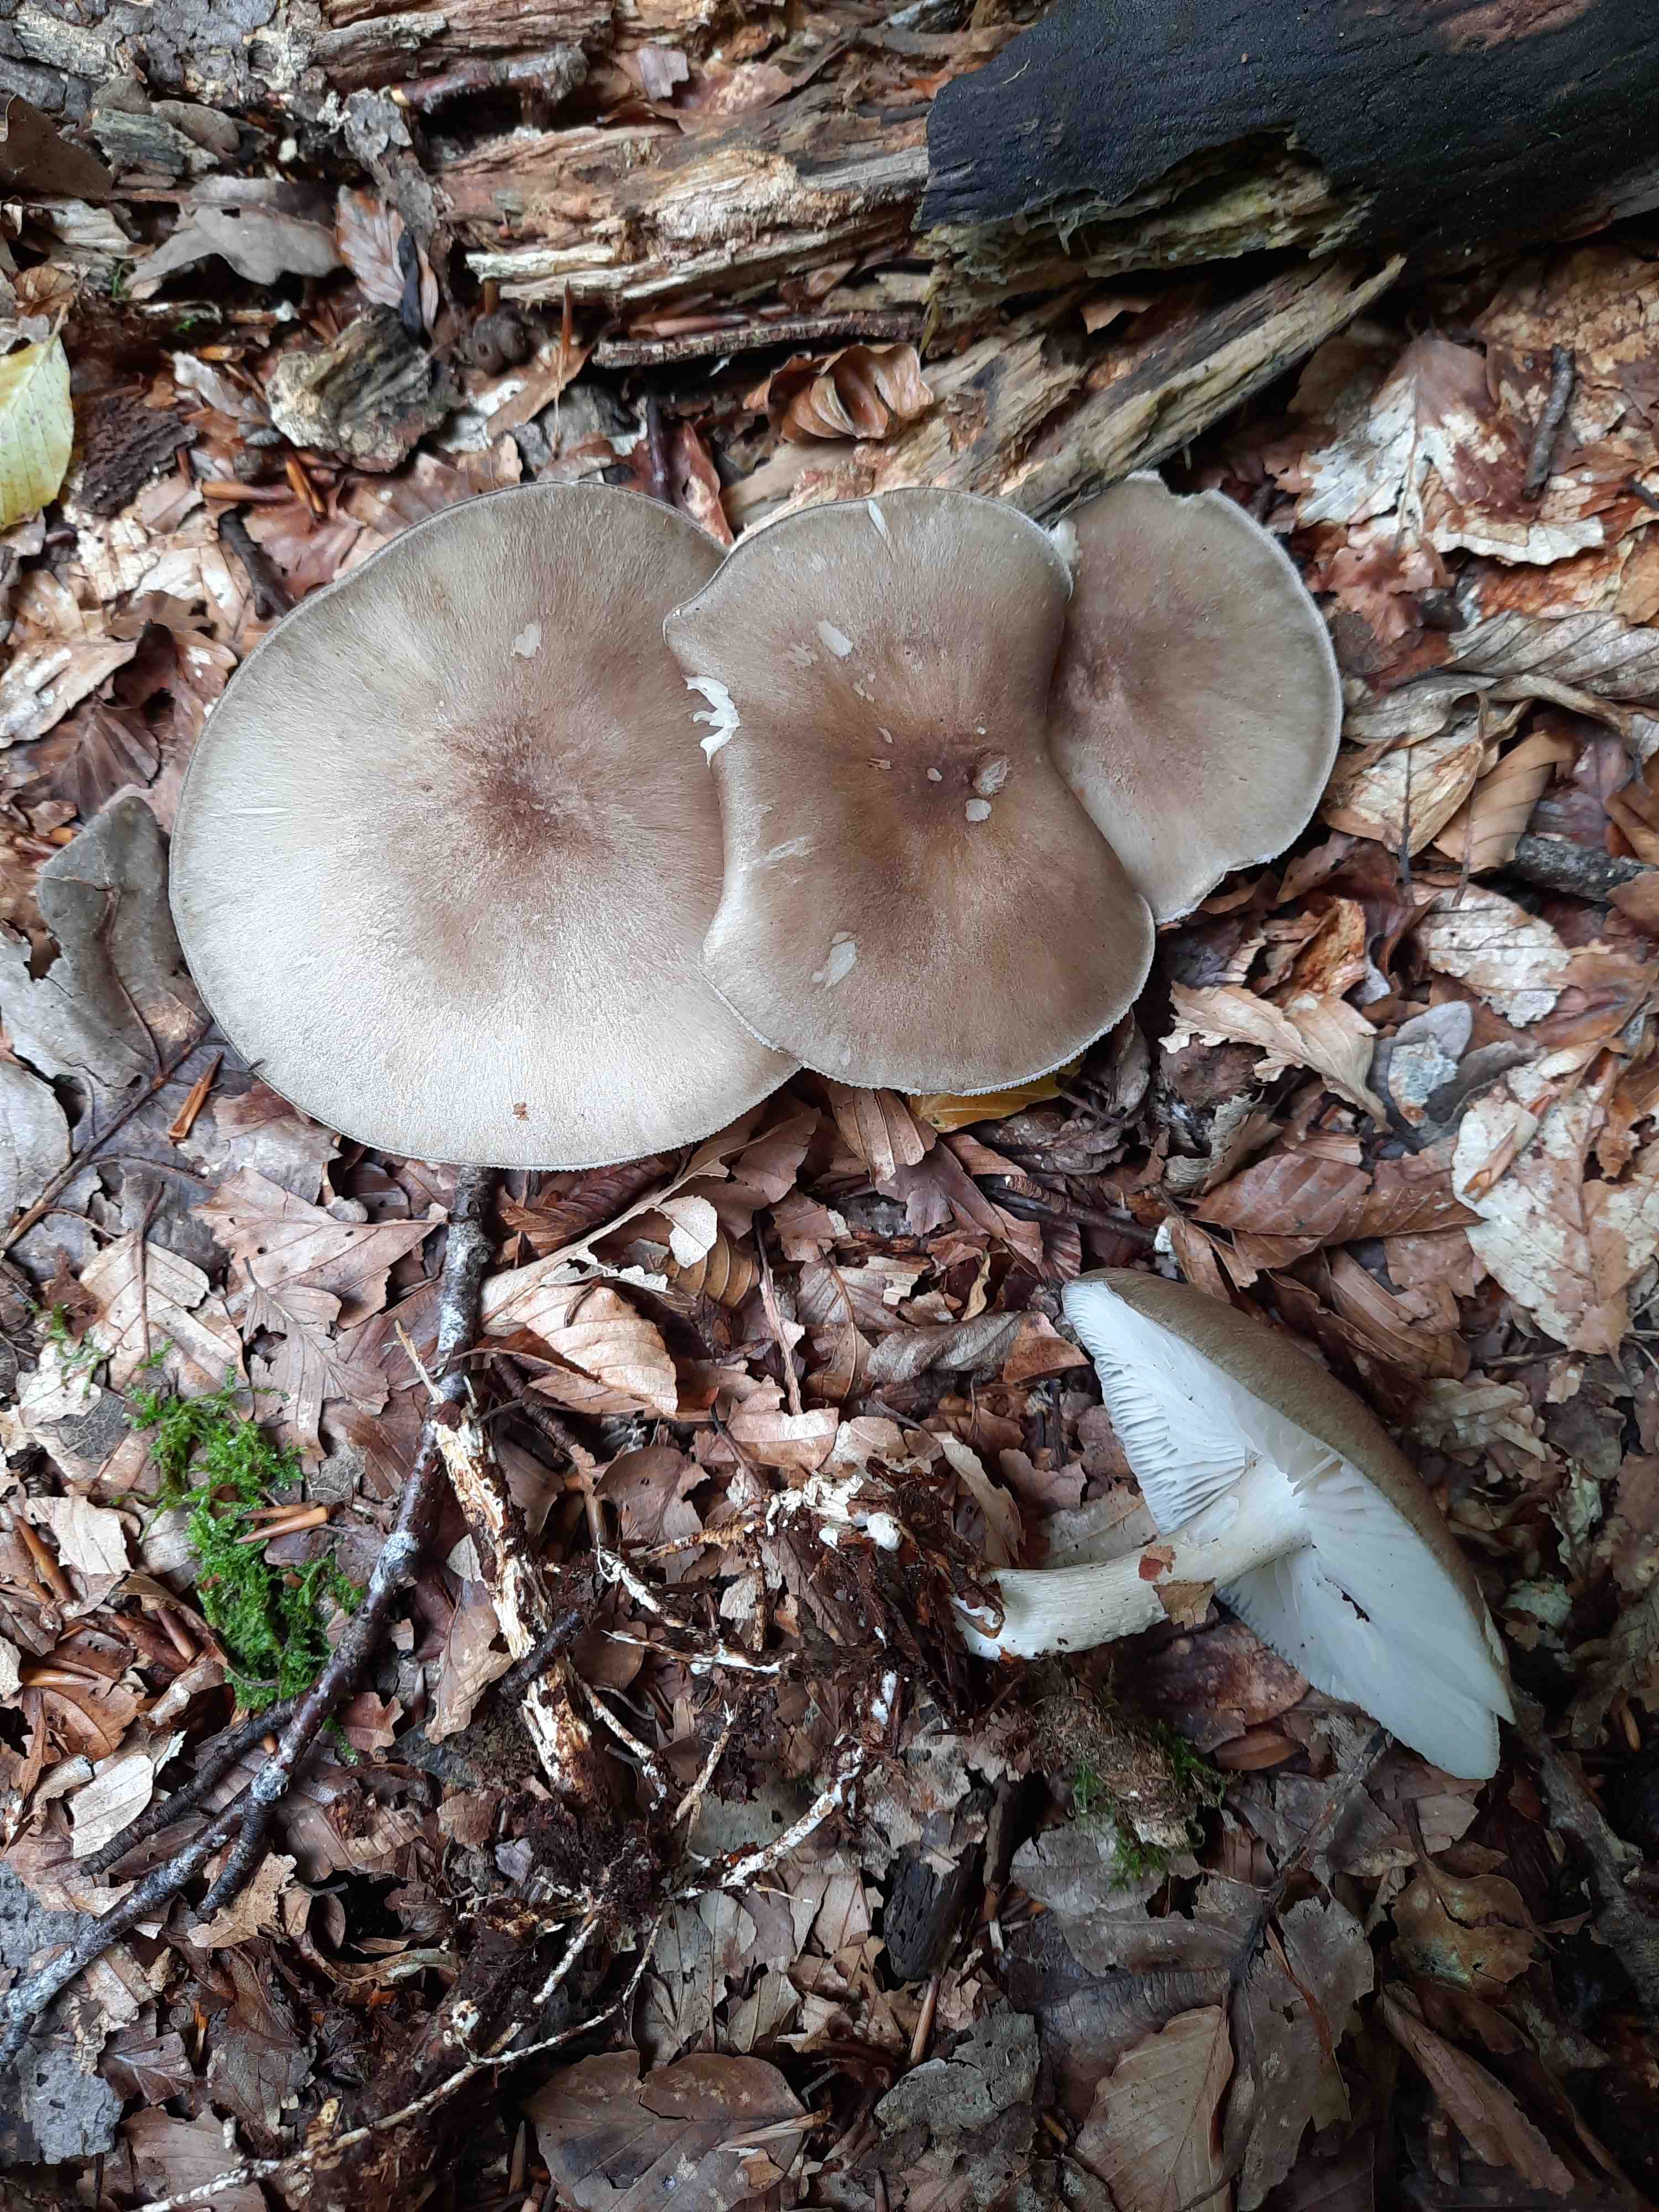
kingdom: Fungi
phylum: Basidiomycota
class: Agaricomycetes
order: Agaricales
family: Tricholomataceae
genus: Megacollybia
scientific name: Megacollybia platyphylla
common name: bredbladet væbnerhat
